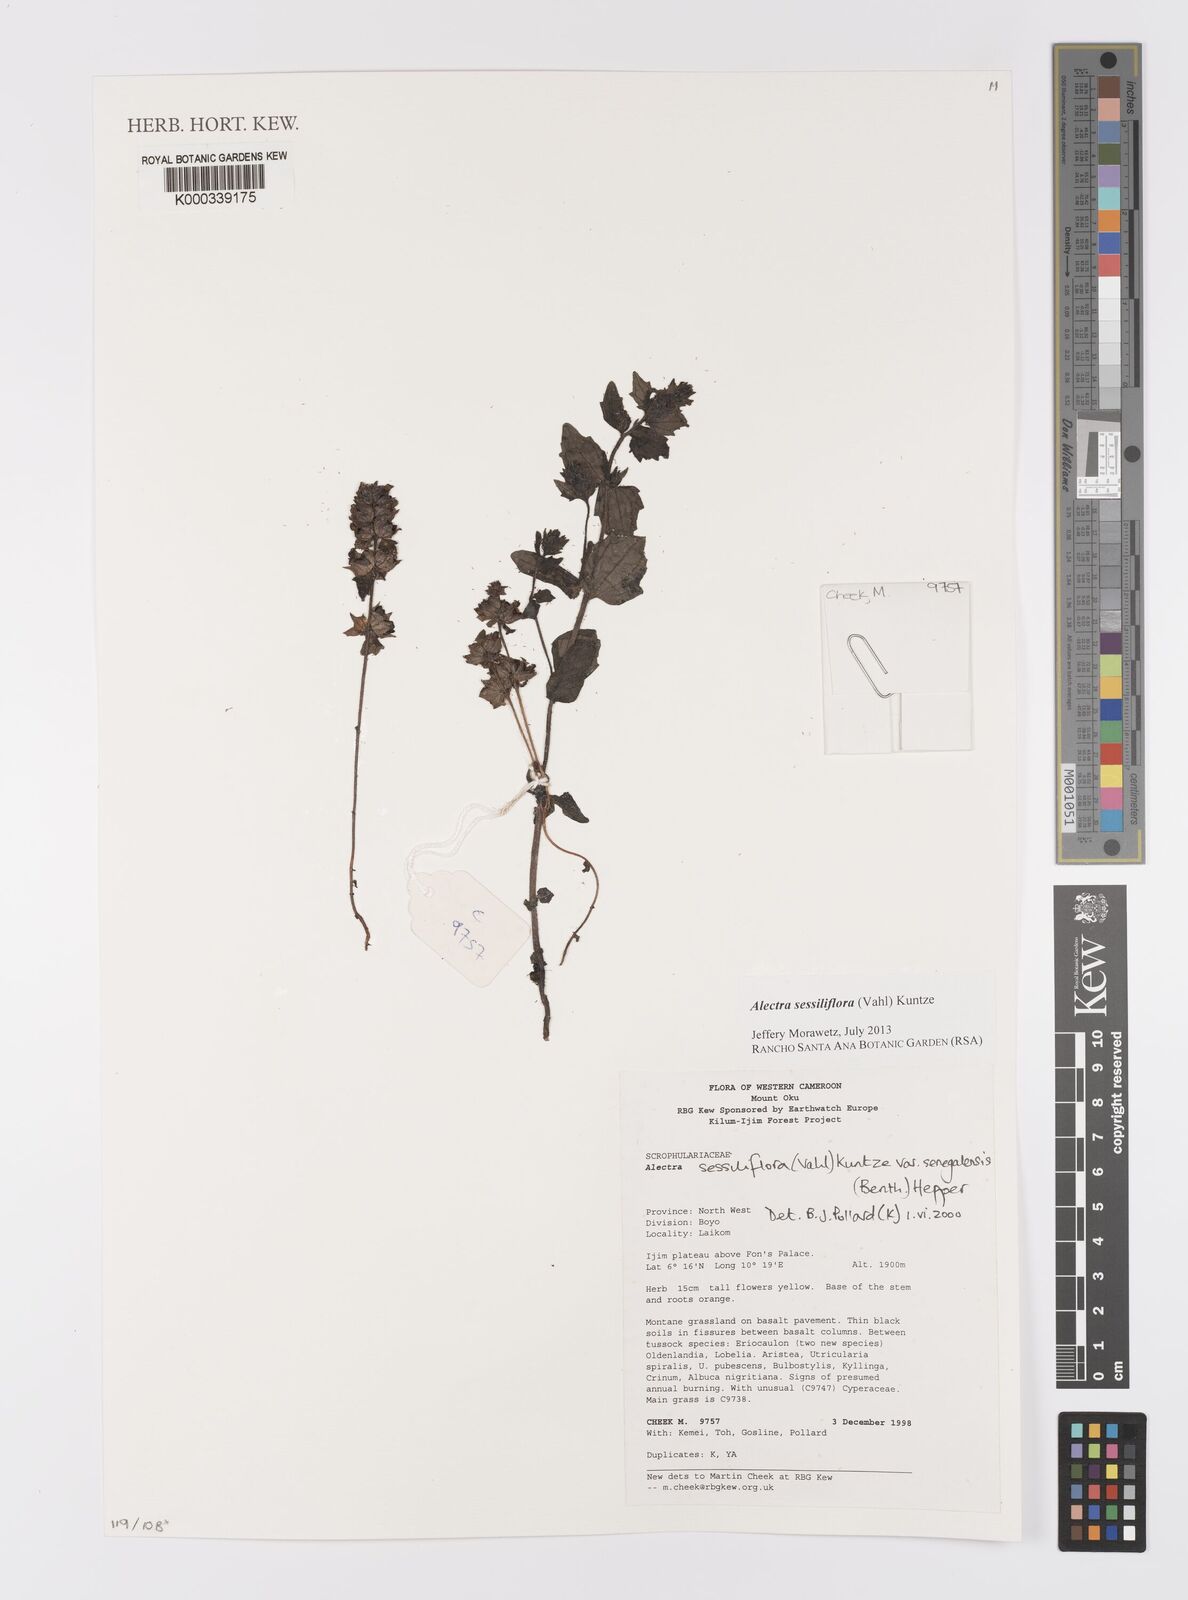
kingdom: Plantae
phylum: Tracheophyta
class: Magnoliopsida
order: Lamiales
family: Orobanchaceae
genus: Alectra
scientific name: Alectra sessiliflora
